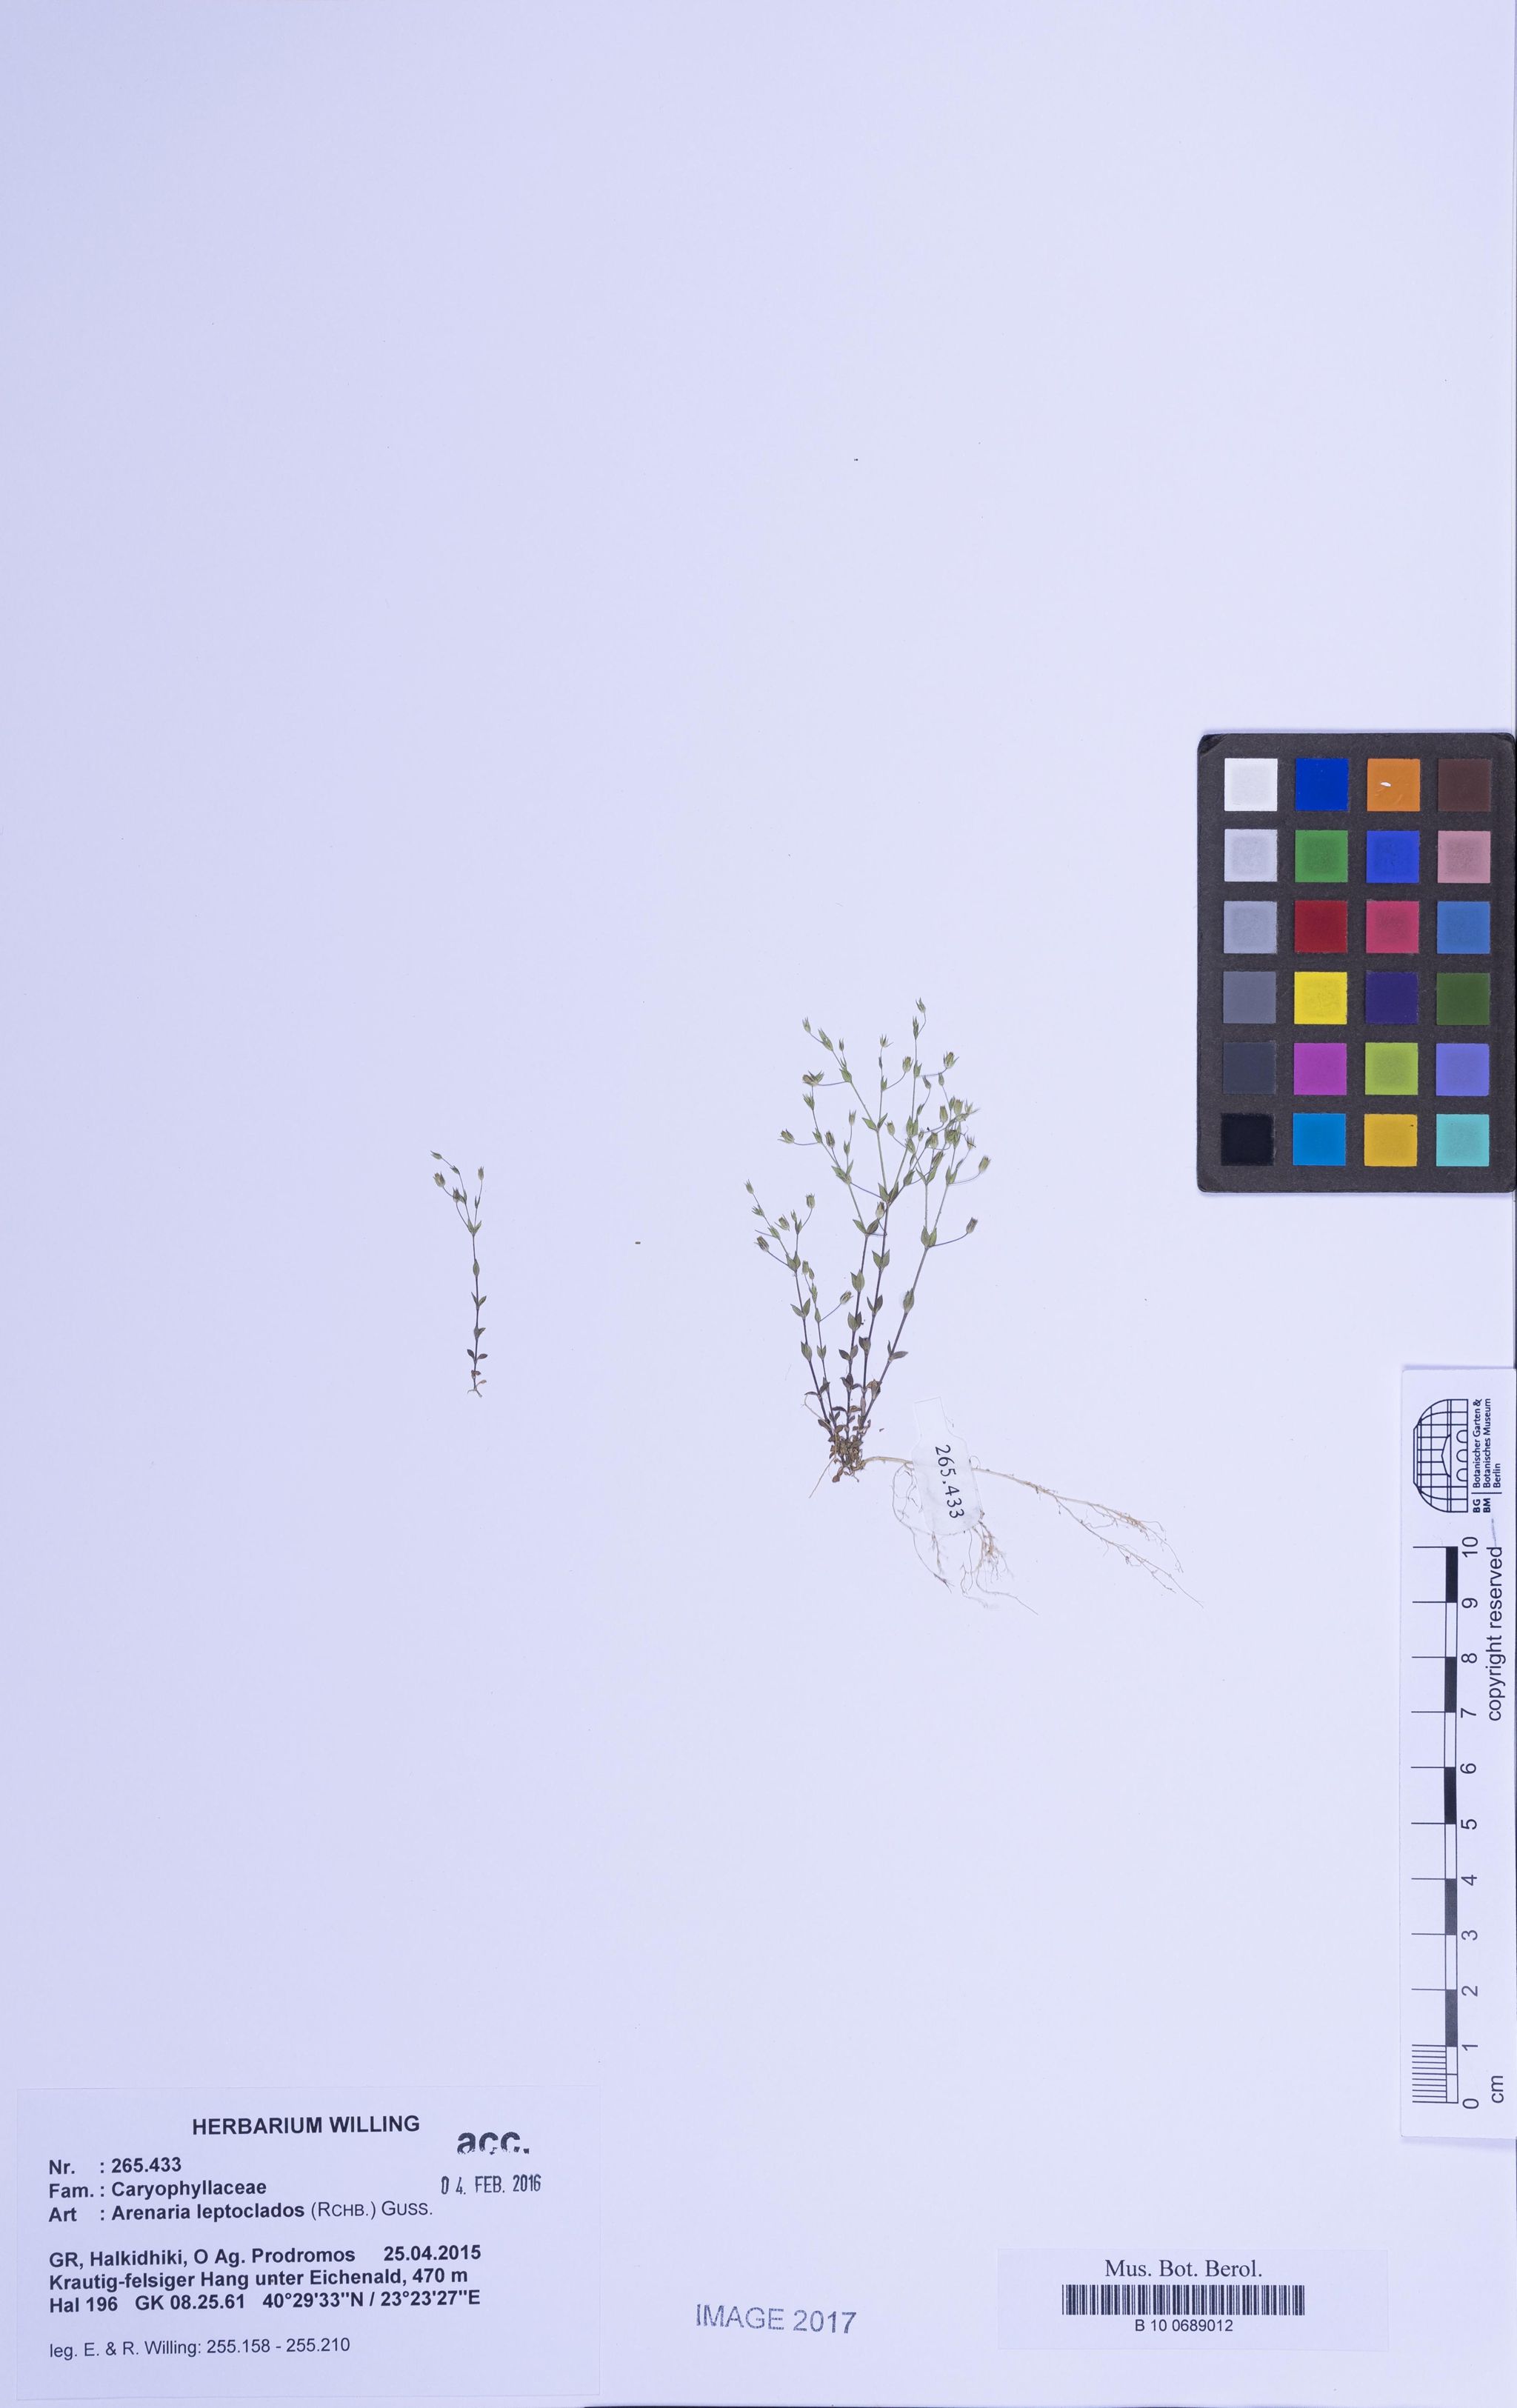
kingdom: Plantae
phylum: Tracheophyta
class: Magnoliopsida
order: Caryophyllales
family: Caryophyllaceae
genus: Arenaria
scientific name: Arenaria leptoclados
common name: Thyme-leaved sandwort
